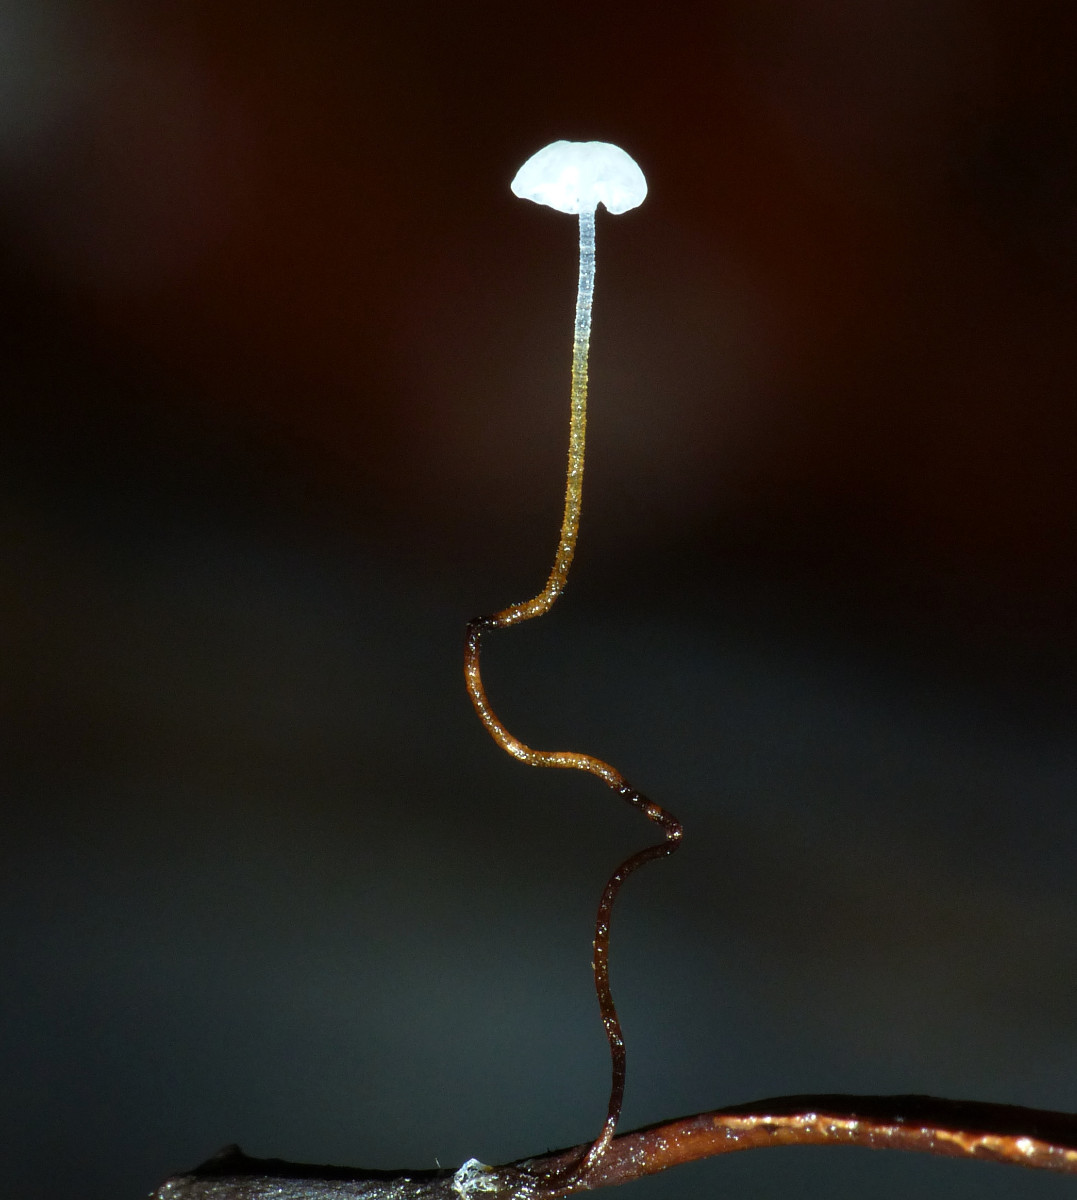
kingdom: Fungi
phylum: Basidiomycota
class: Agaricomycetes
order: Agaricales
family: Marasmiaceae
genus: Marasmius
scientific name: Marasmius epiphyllus
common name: blad-bruskhat
